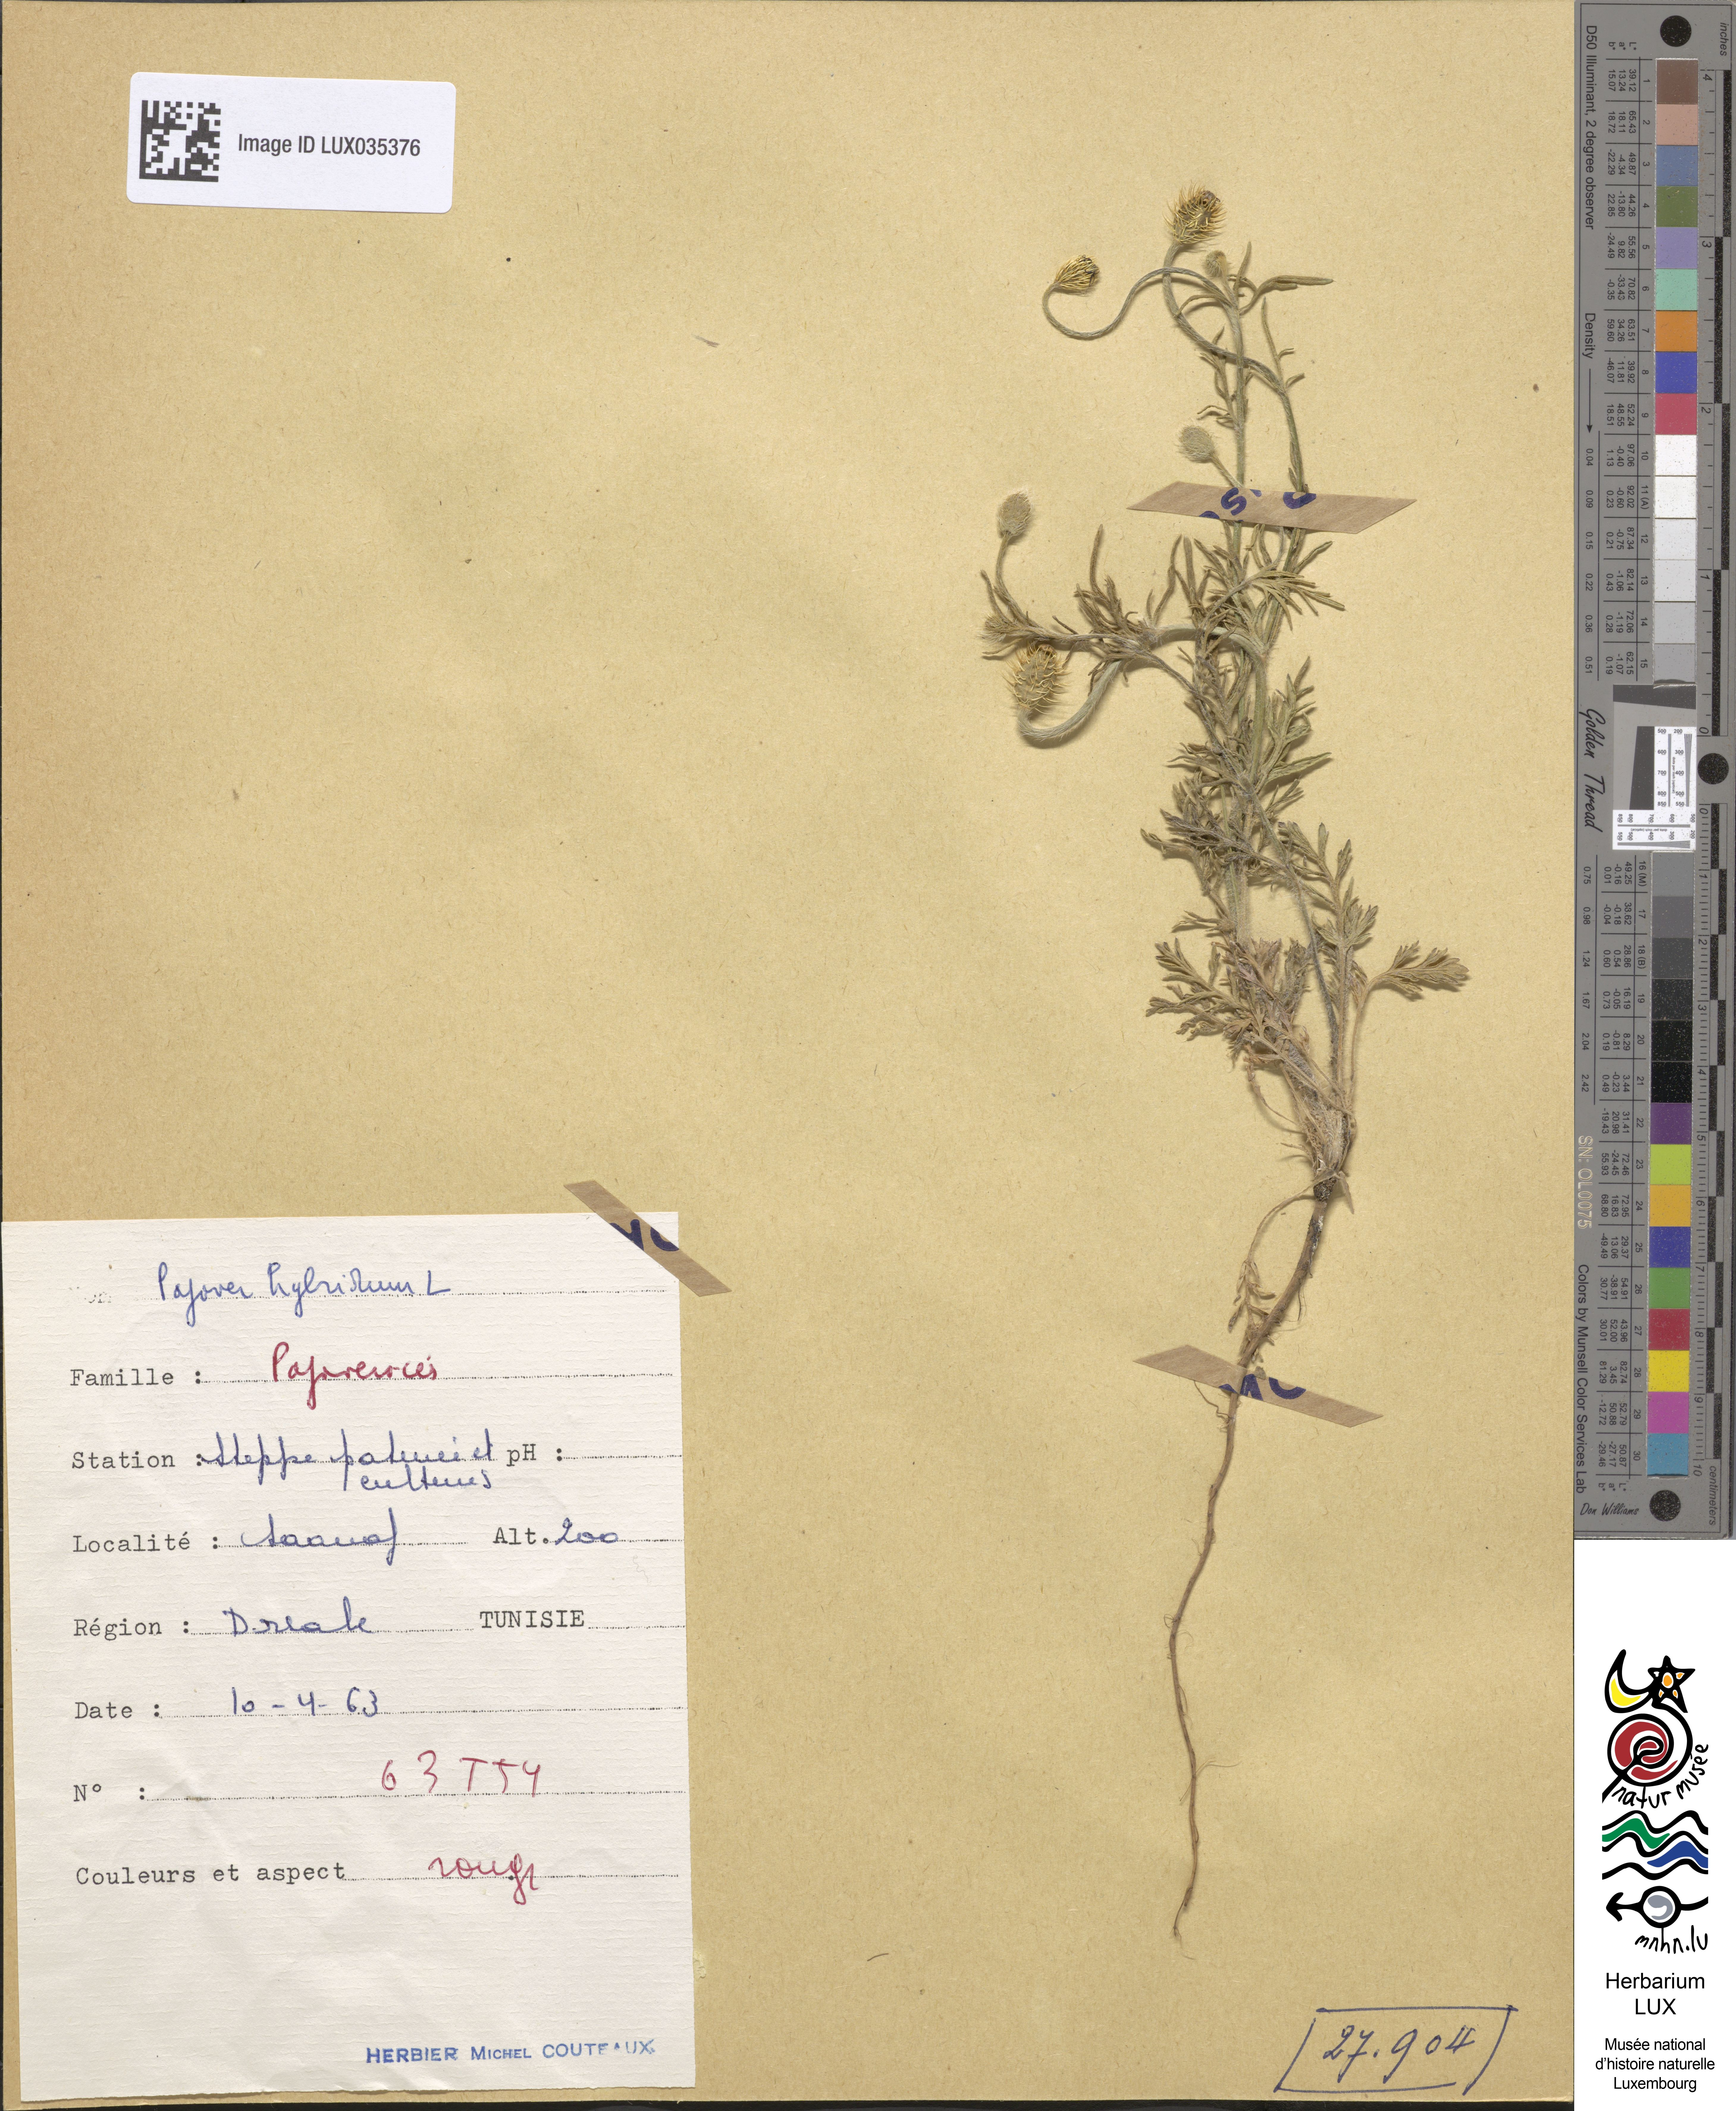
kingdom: Plantae
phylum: Tracheophyta
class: Magnoliopsida
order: Ranunculales
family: Papaveraceae
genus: Roemeria
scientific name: Roemeria hispida
